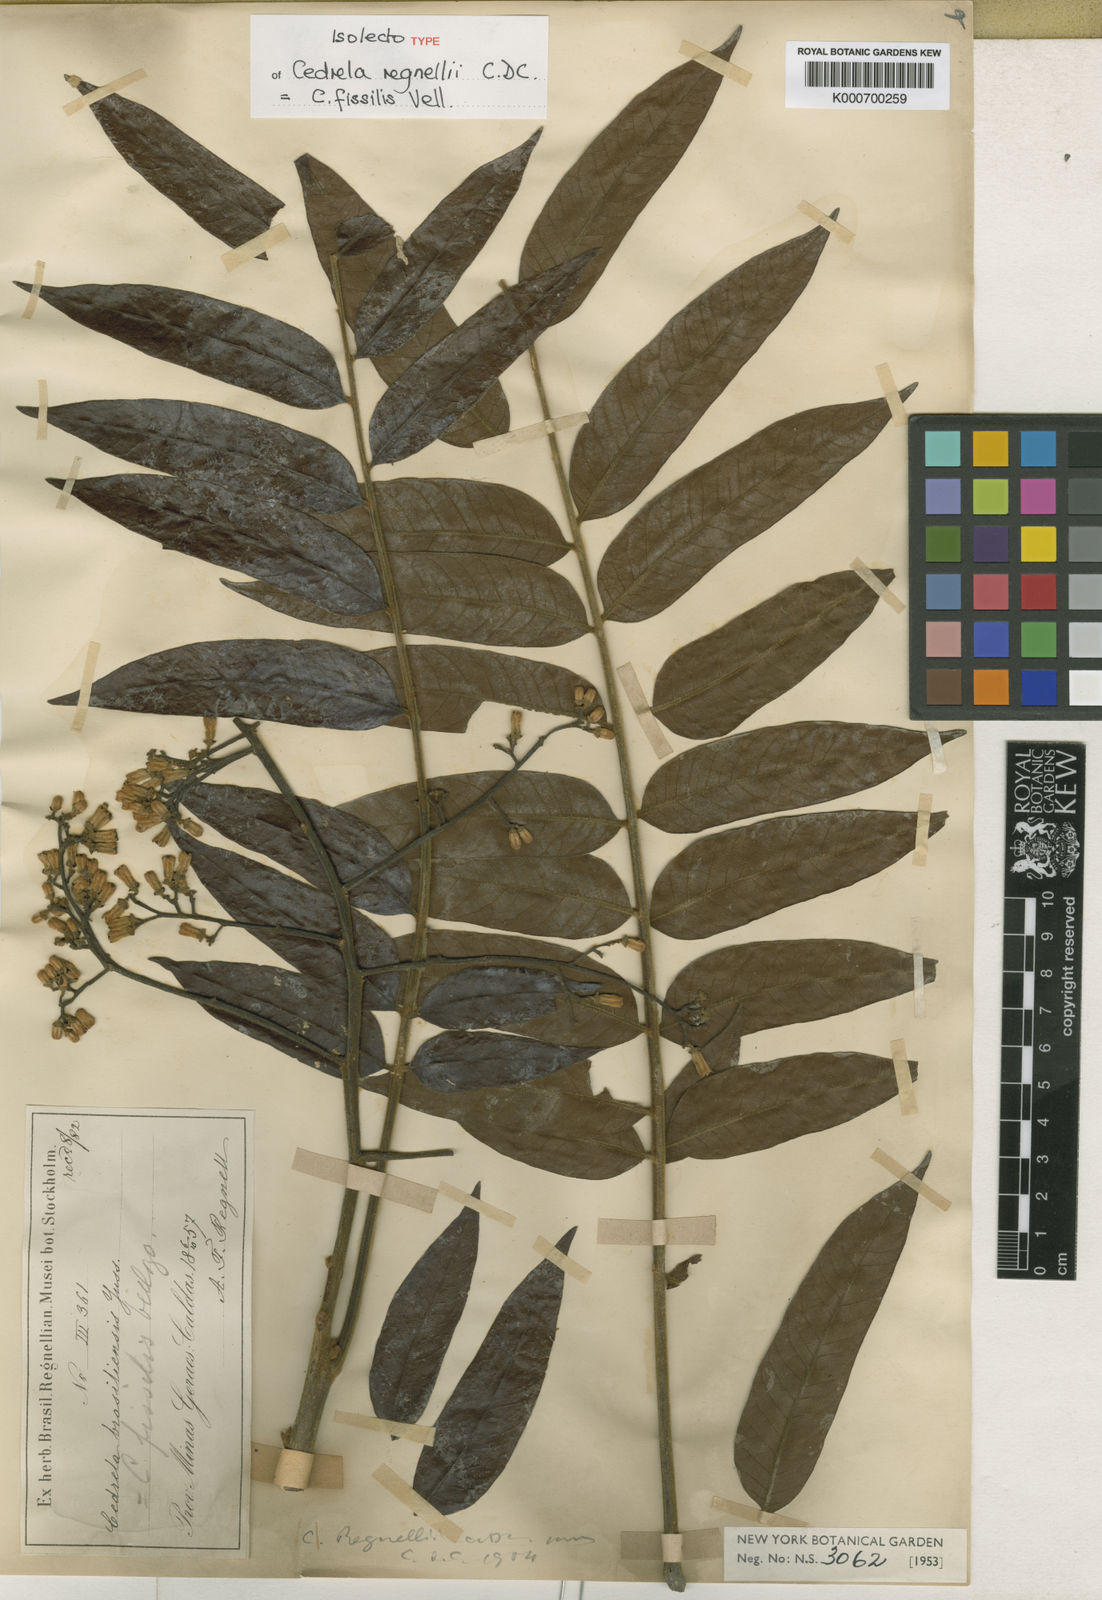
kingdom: Plantae
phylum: Tracheophyta
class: Magnoliopsida
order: Sapindales
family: Meliaceae
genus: Cedrela
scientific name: Cedrela fissilis
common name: Argentine cedar
